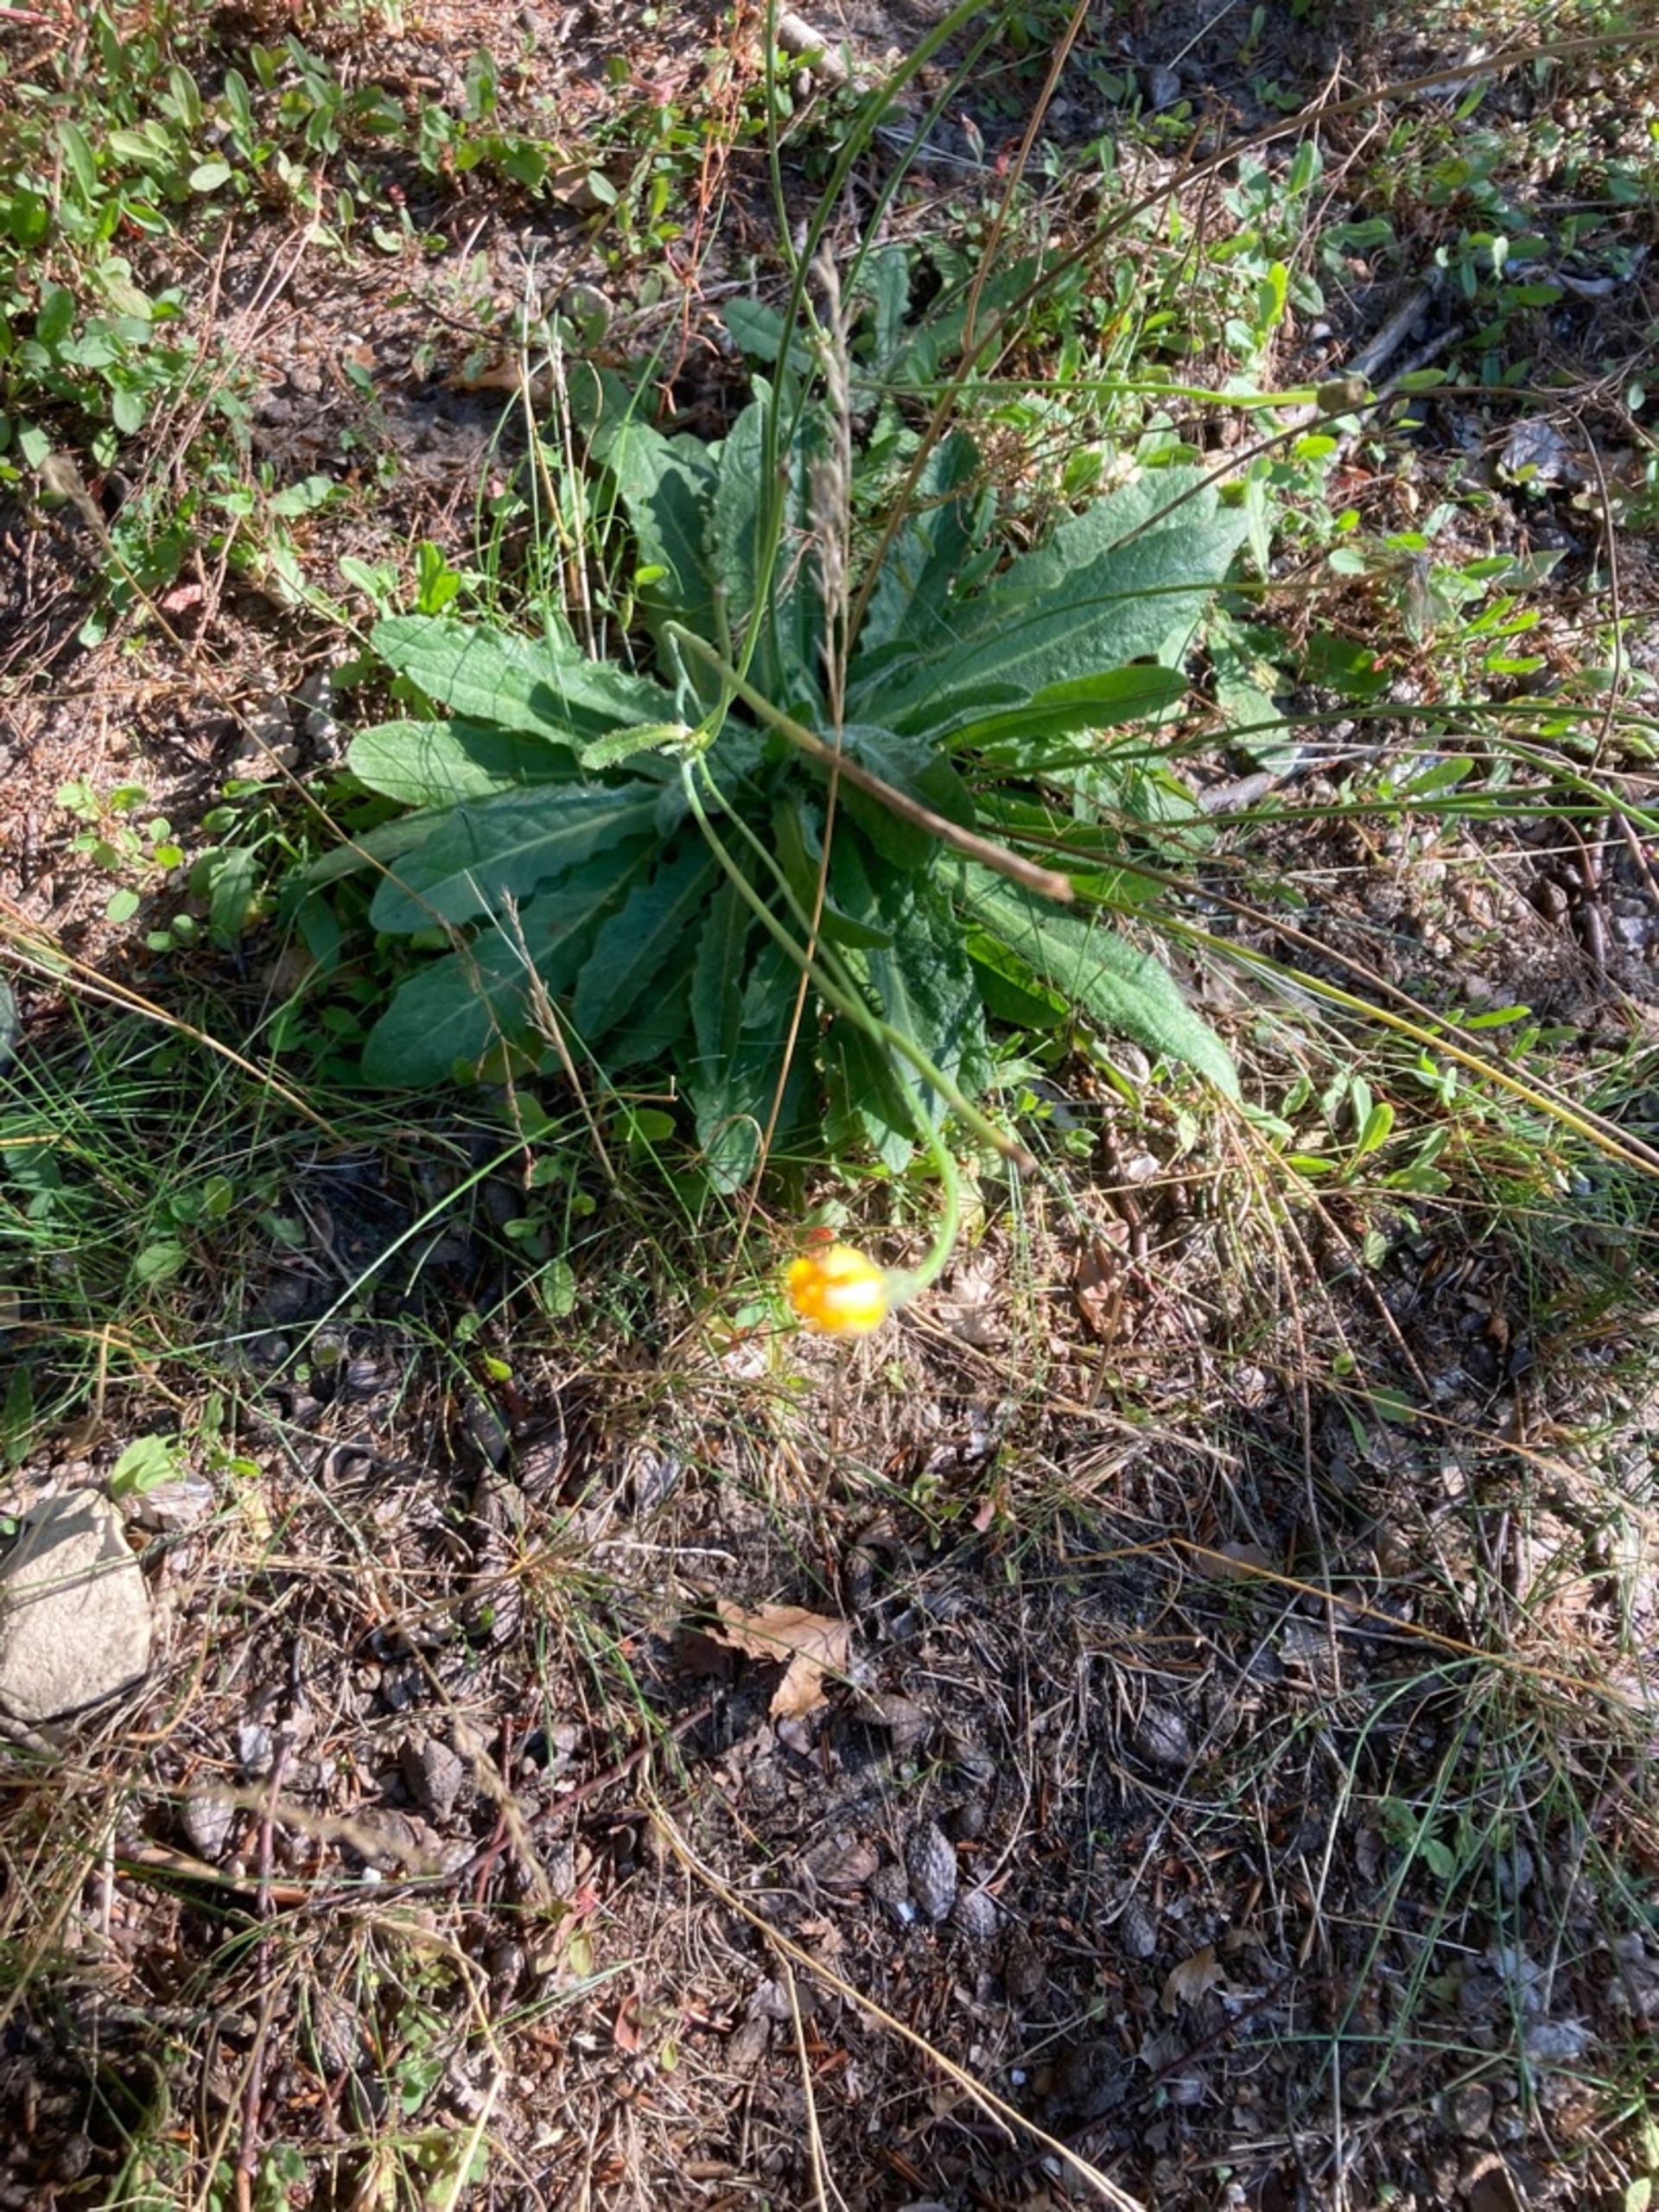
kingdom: Plantae
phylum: Tracheophyta
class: Magnoliopsida
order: Asterales
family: Asteraceae
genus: Hypochaeris
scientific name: Hypochaeris radicata
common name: Almindelig kongepen
